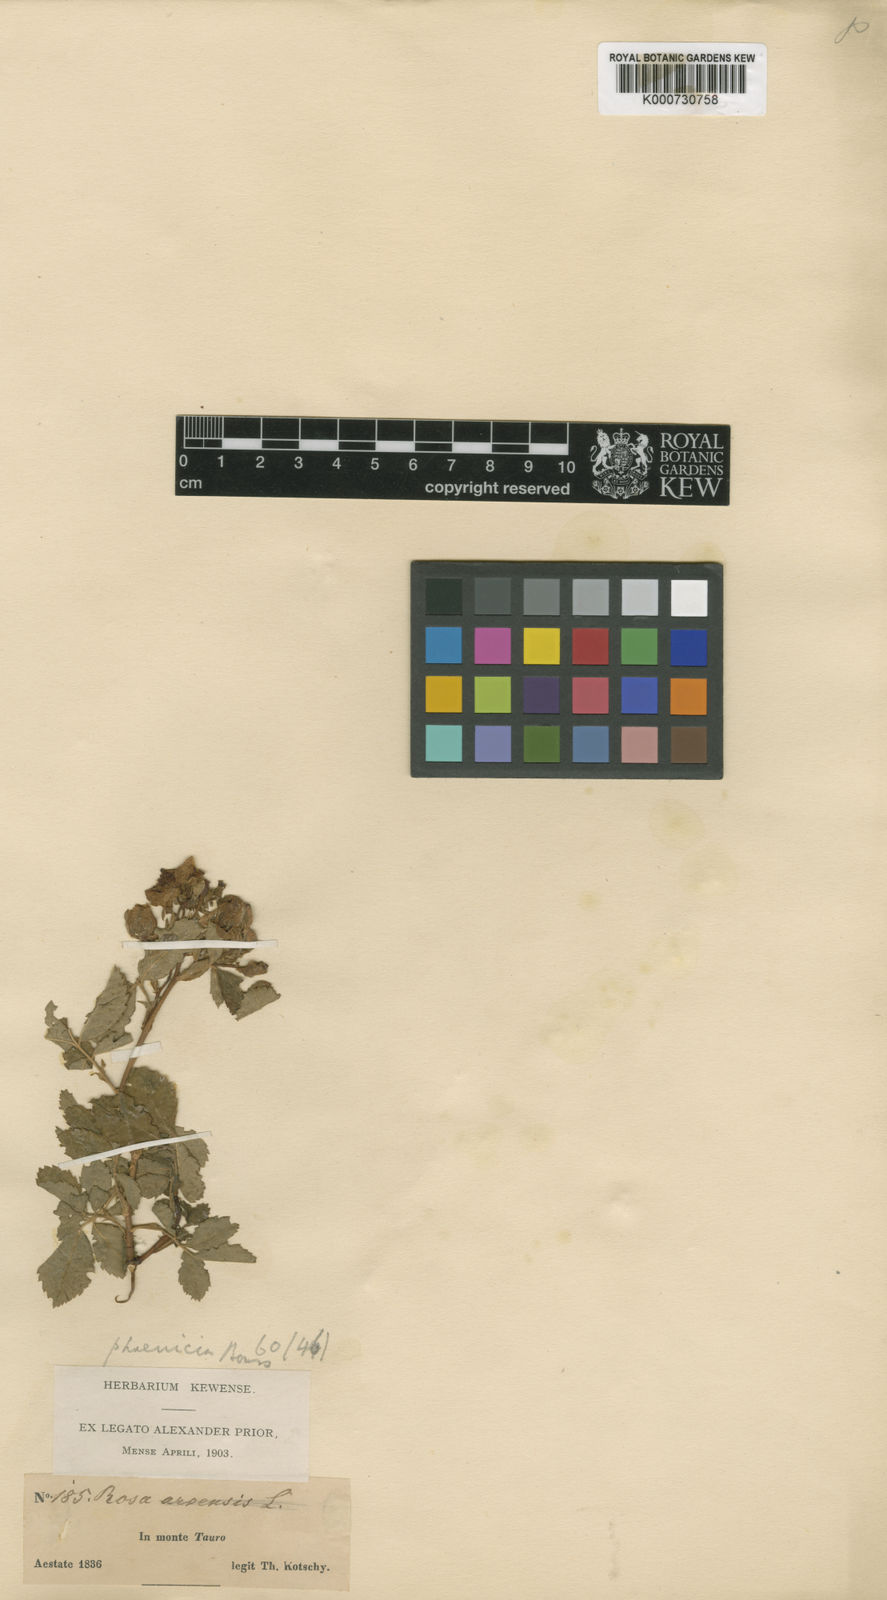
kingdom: Plantae
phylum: Tracheophyta
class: Magnoliopsida
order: Rosales
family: Rosaceae
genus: Rosa
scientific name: Rosa phoenicia
